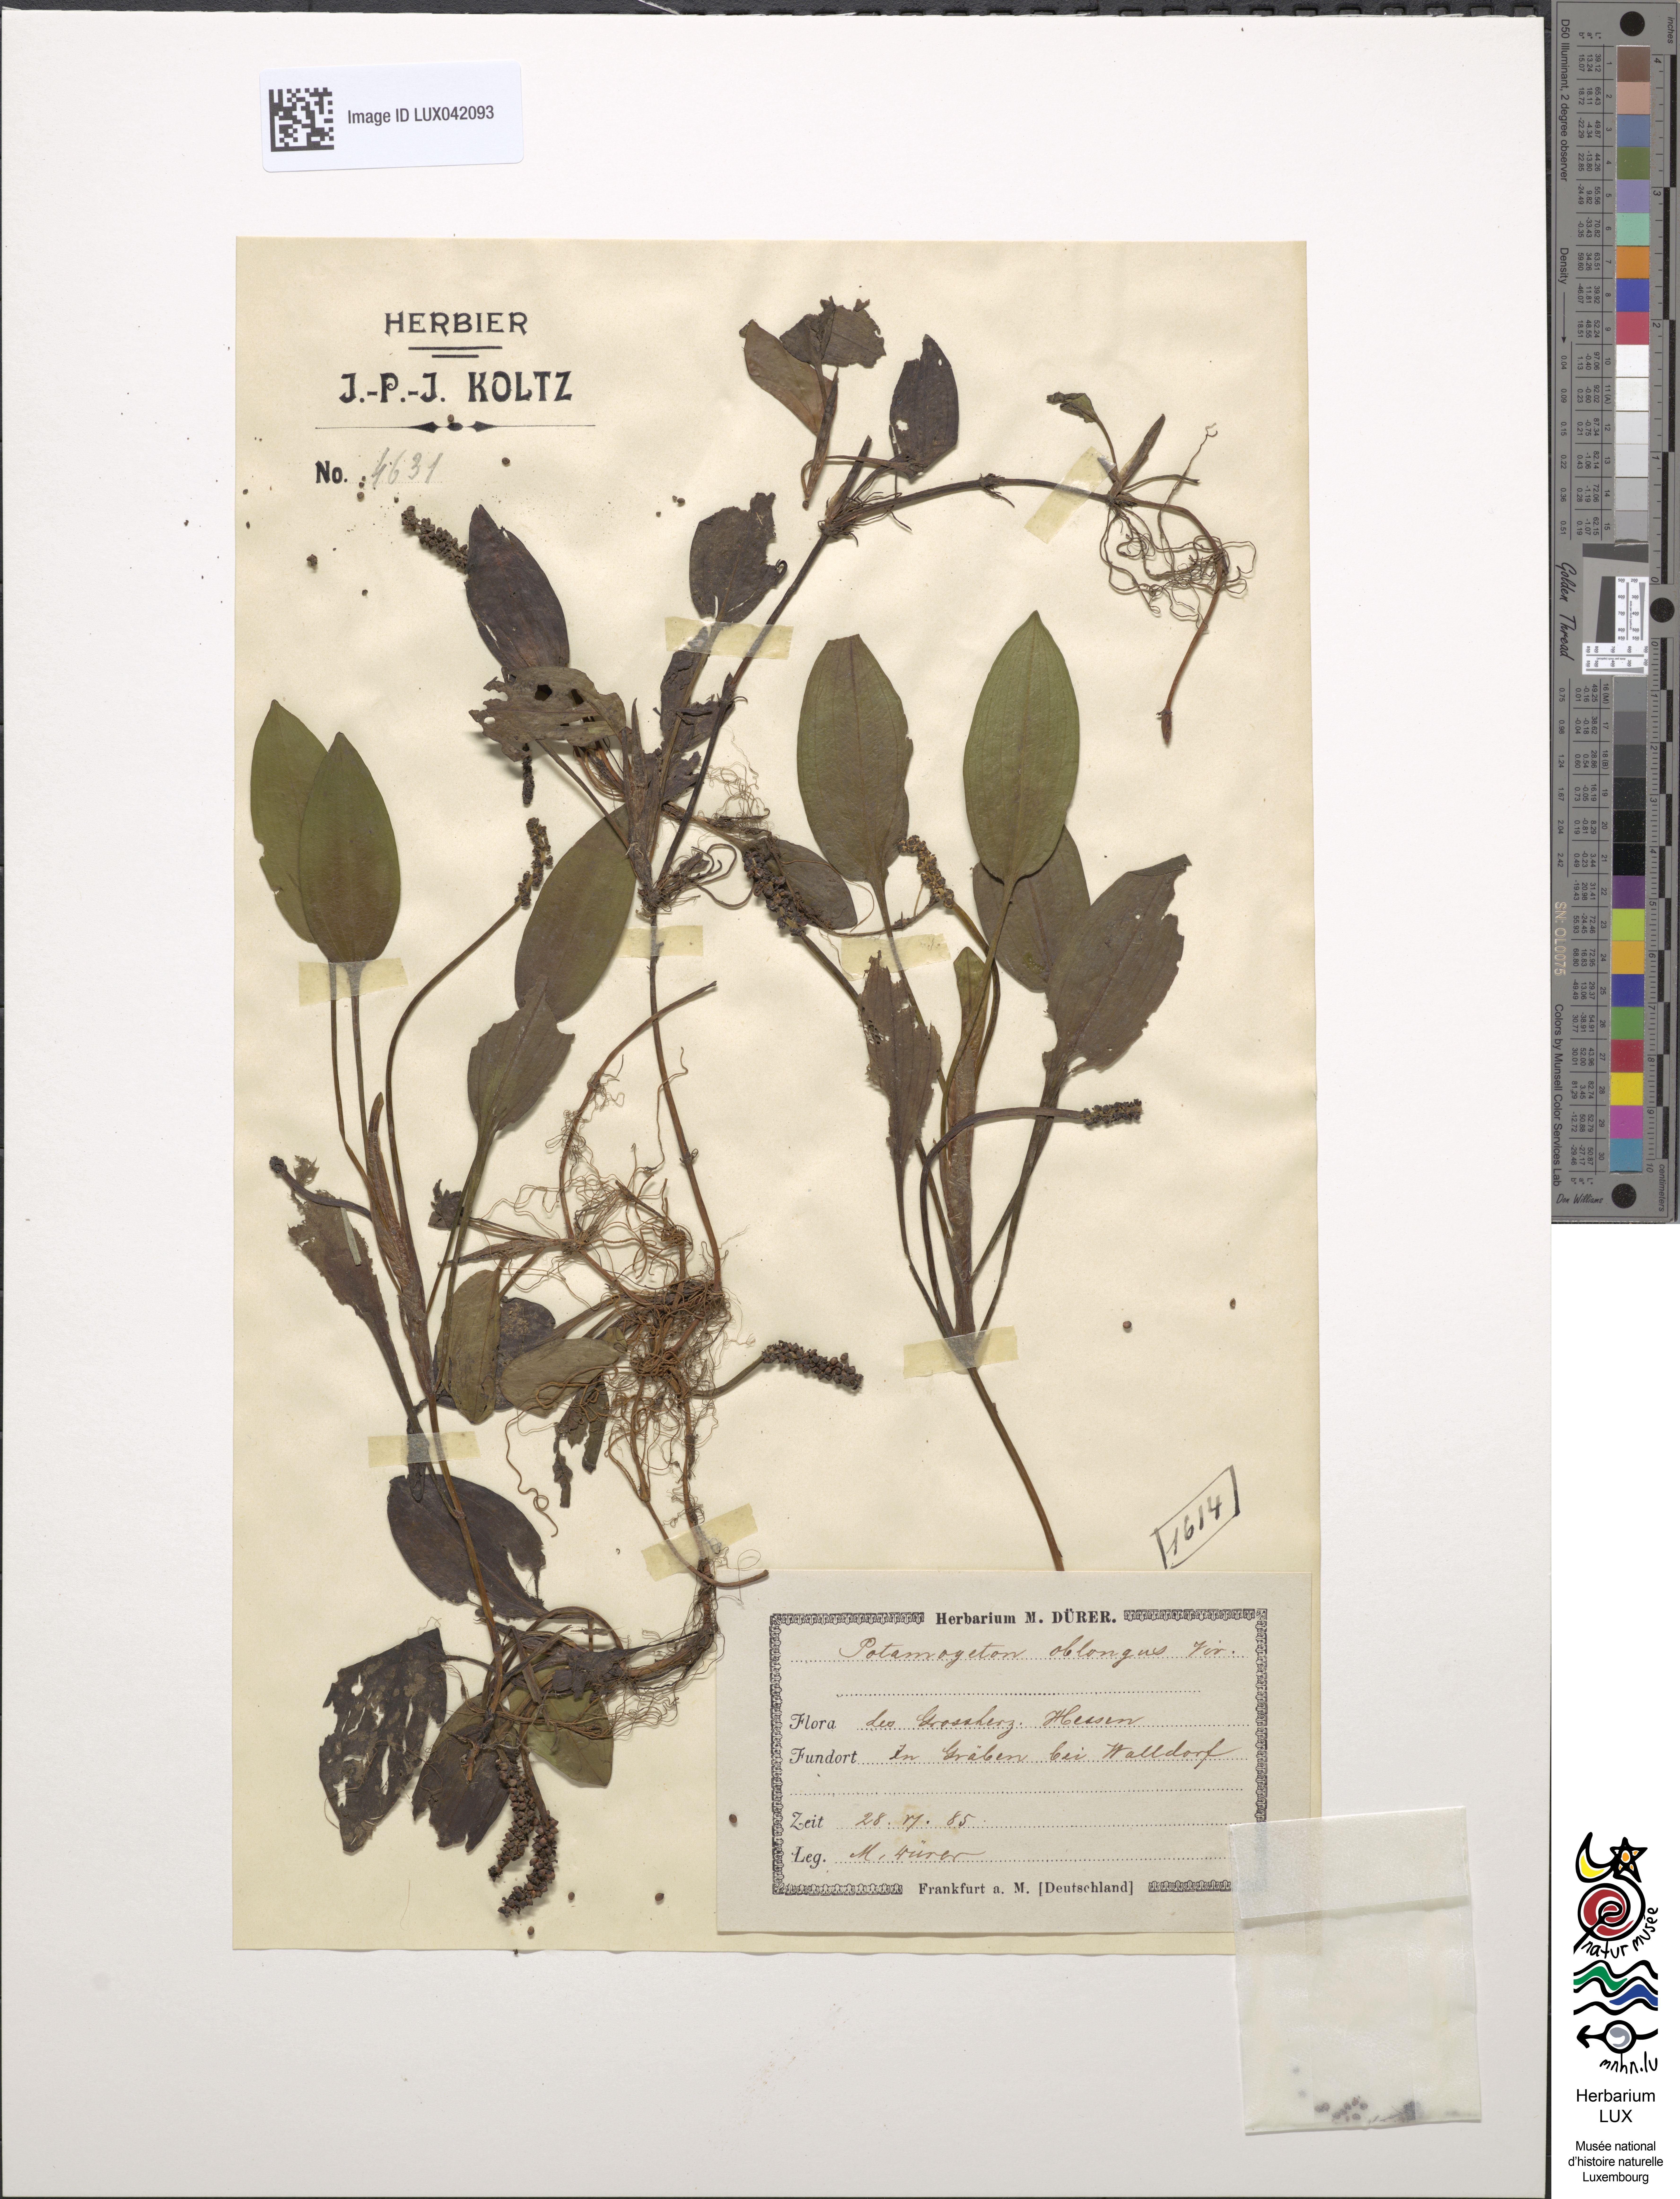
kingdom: Plantae
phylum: Tracheophyta
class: Liliopsida
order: Alismatales
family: Potamogetonaceae
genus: Potamogeton
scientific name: Potamogeton polygonifolius
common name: Bog pondweed
